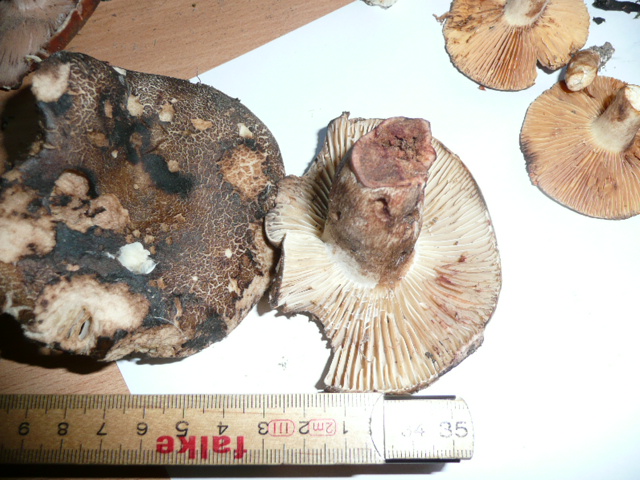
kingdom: Fungi
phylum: Basidiomycota
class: Agaricomycetes
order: Russulales
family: Russulaceae
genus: Russula
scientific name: Russula adusta
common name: sværtende skørhat
